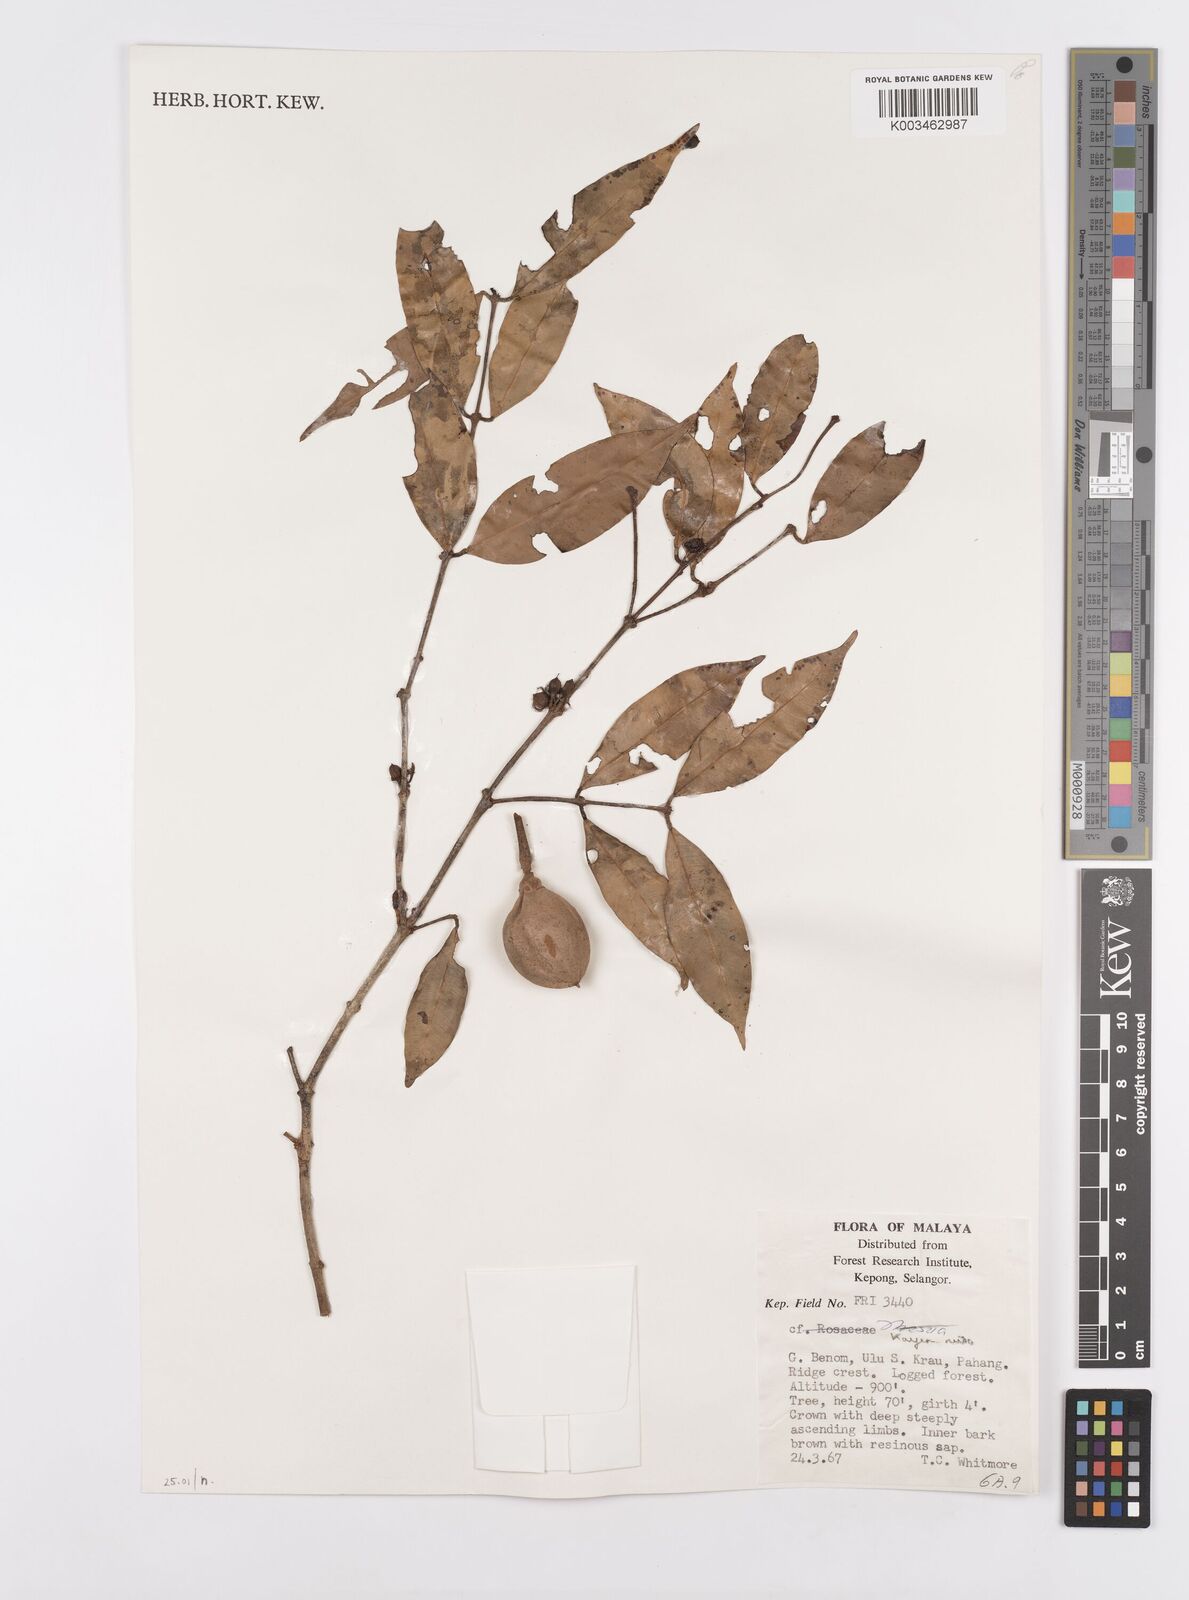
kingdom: Plantae
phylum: Tracheophyta
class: Magnoliopsida
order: Malpighiales
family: Calophyllaceae
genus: Kayea
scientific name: Kayea
